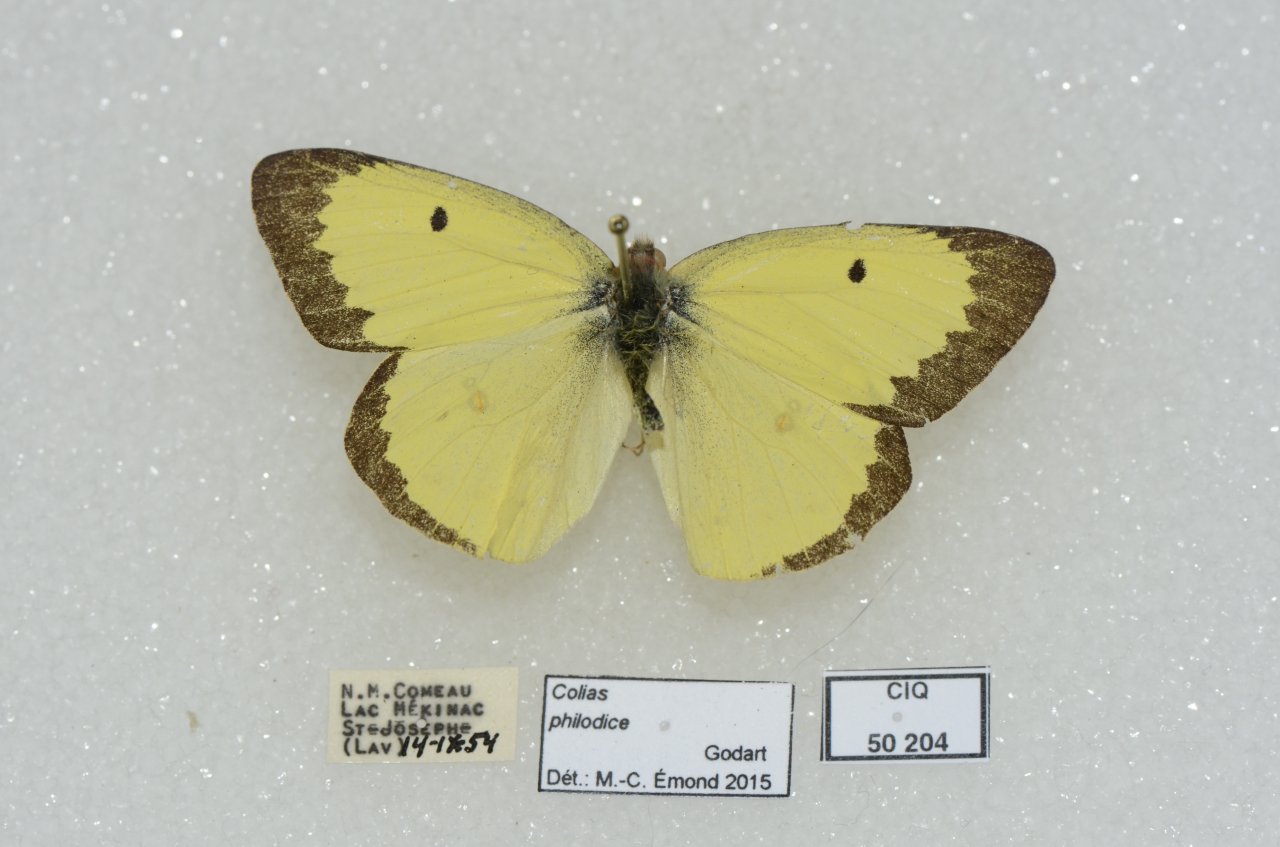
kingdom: Animalia
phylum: Arthropoda
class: Insecta
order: Lepidoptera
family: Pieridae
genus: Colias
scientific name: Colias philodice
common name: Clouded Sulphur
